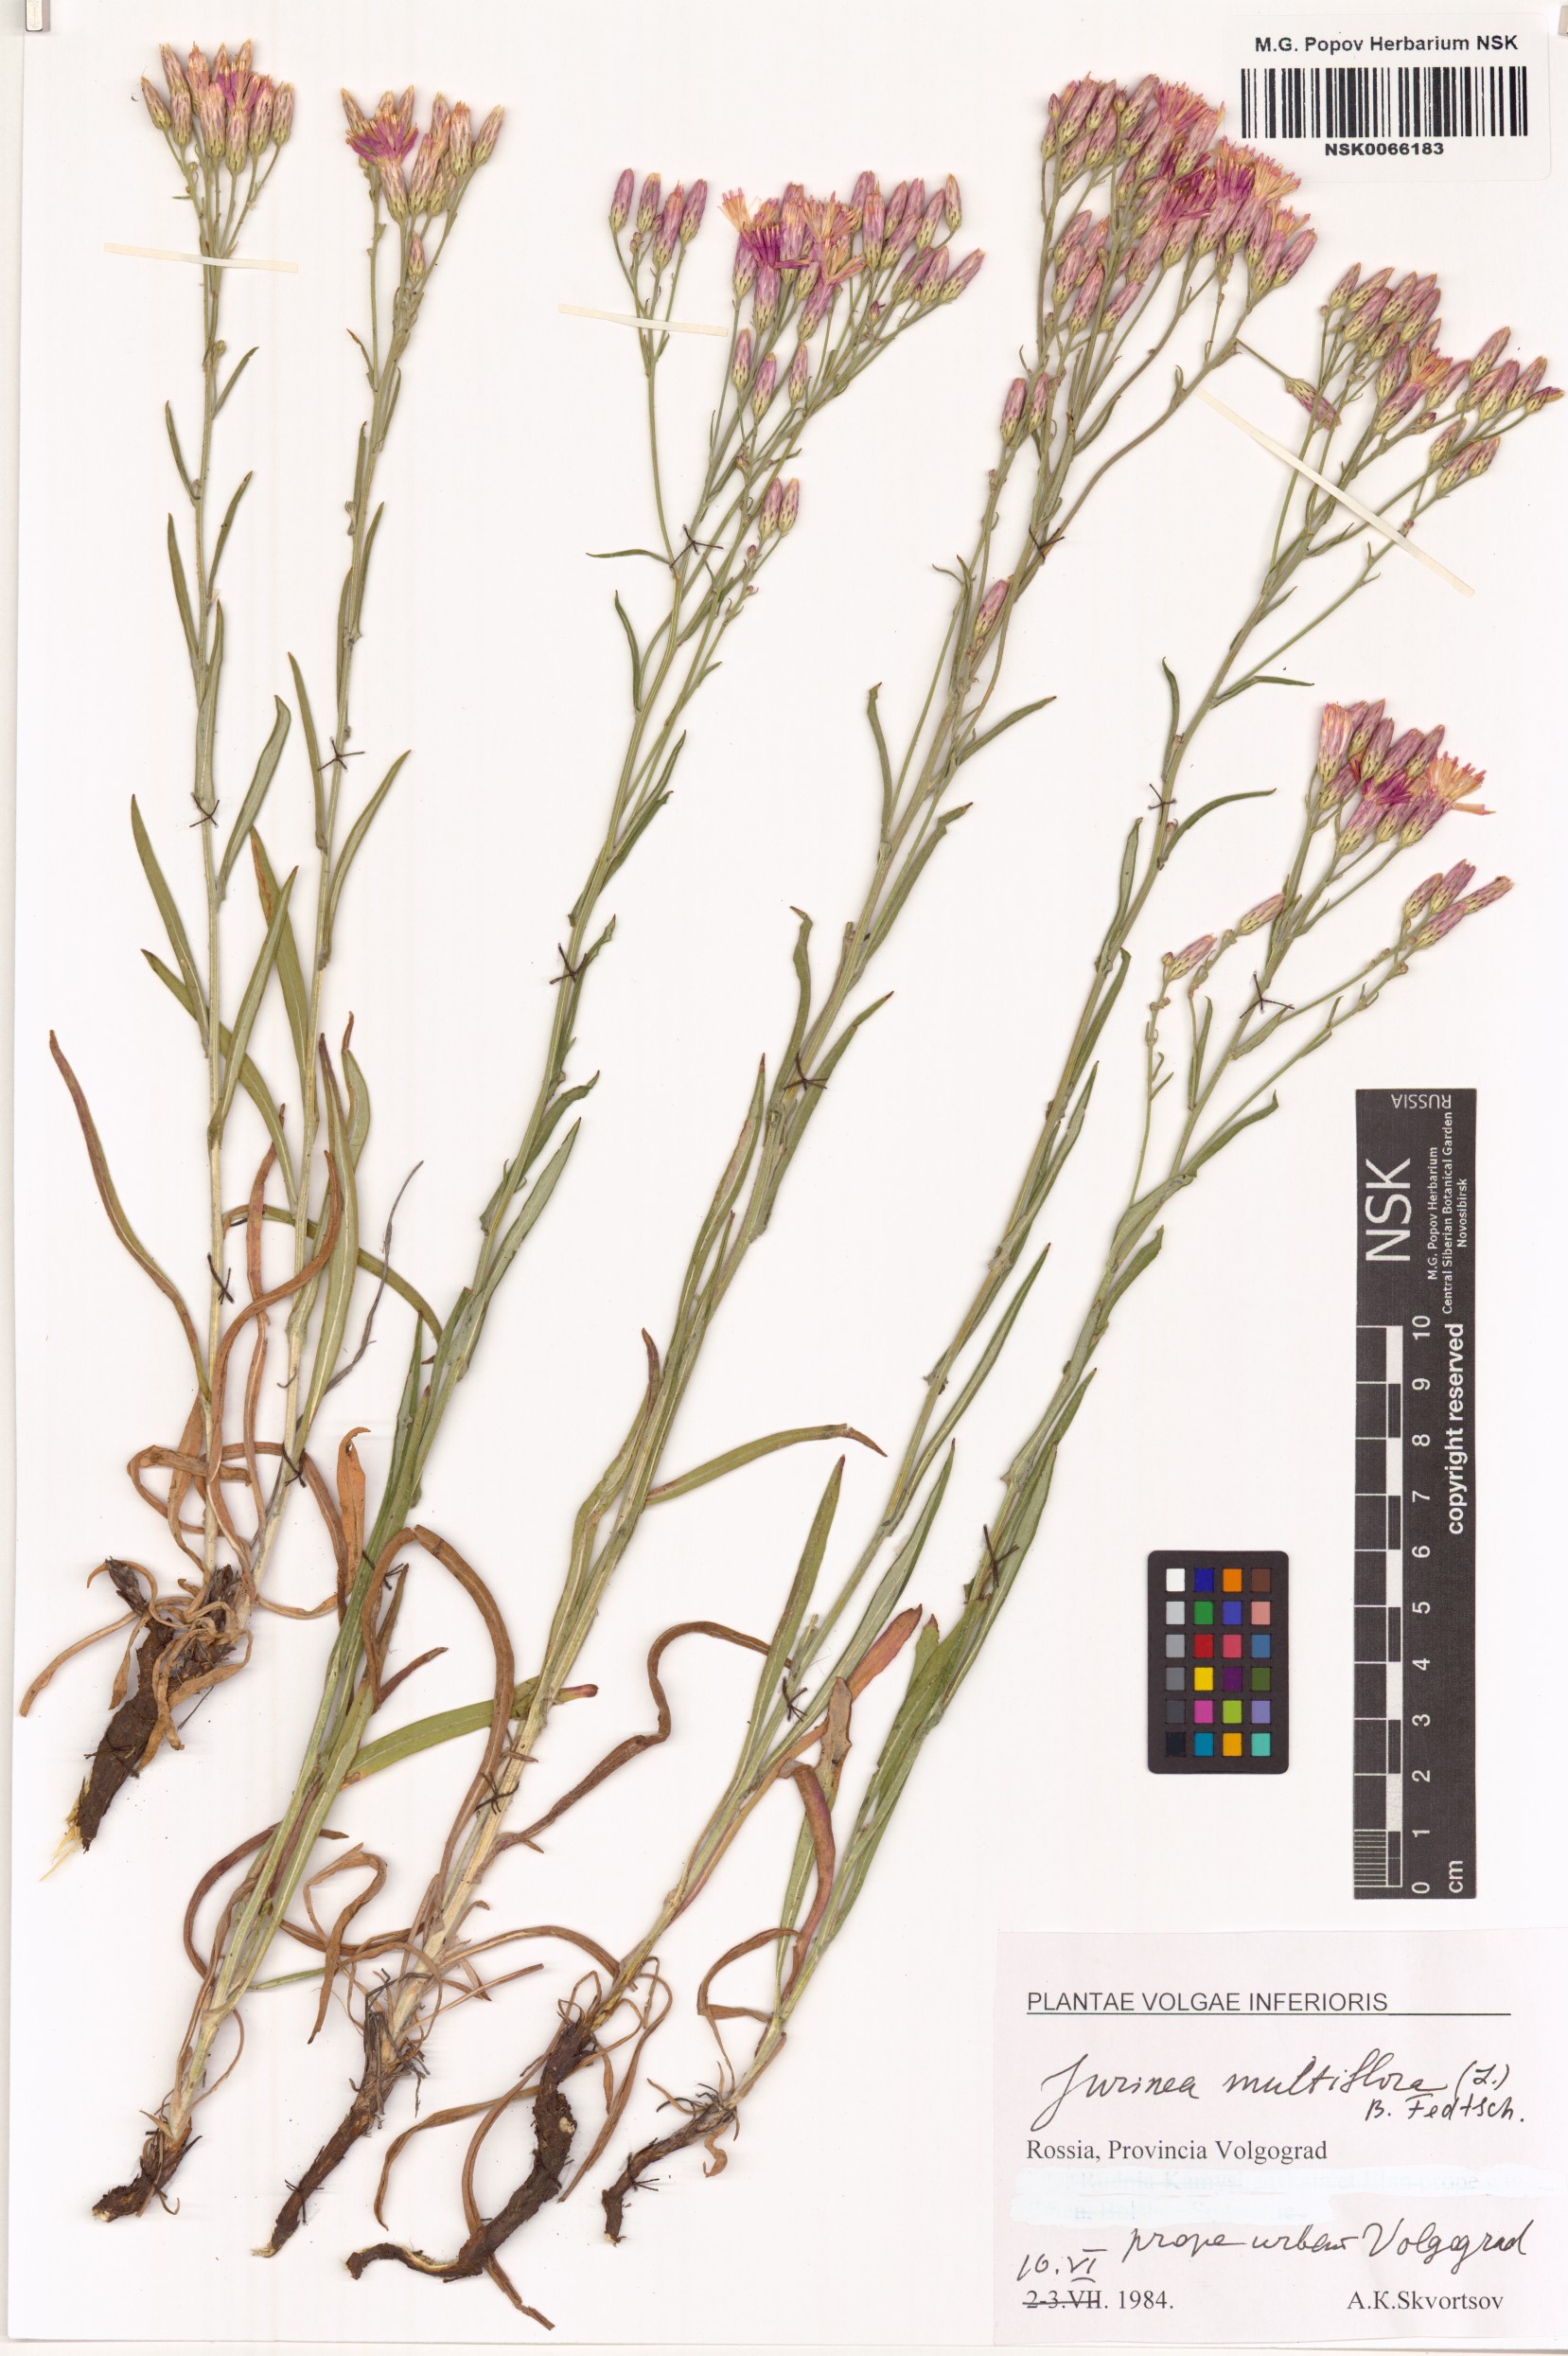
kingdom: Plantae
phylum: Tracheophyta
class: Magnoliopsida
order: Asterales
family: Asteraceae
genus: Jurinea
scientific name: Jurinea multiflora
